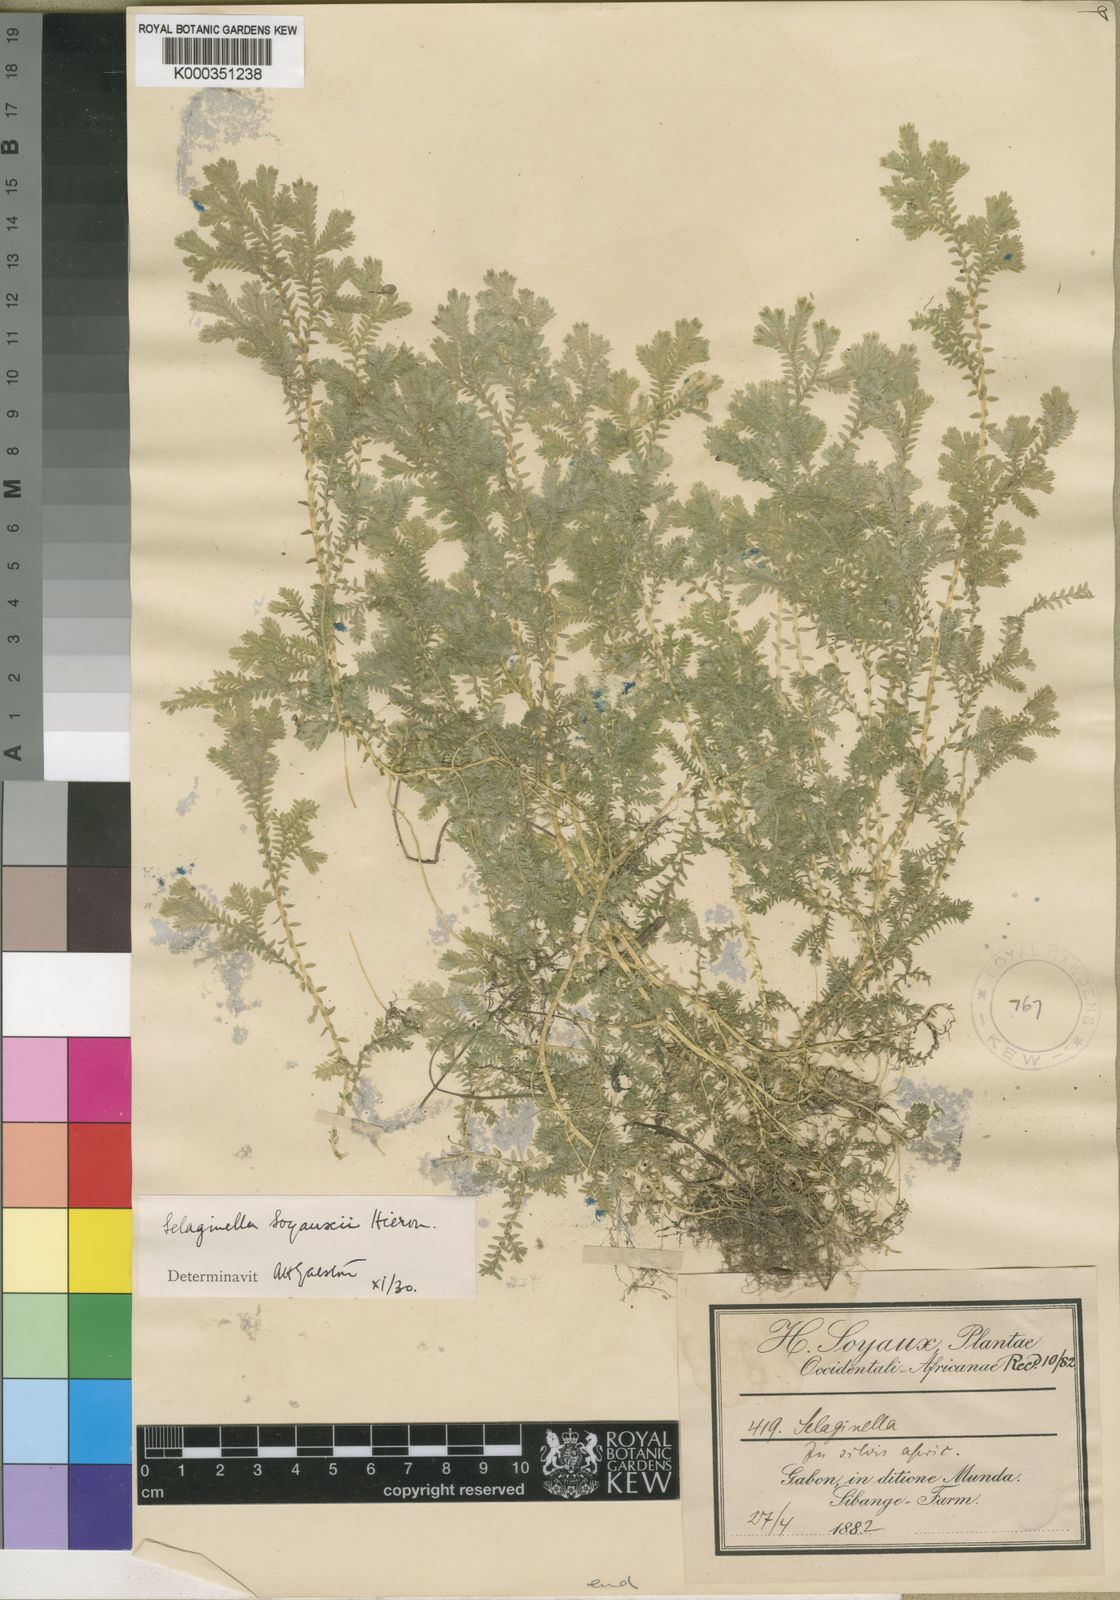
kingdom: Plantae
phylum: Tracheophyta
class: Lycopodiopsida
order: Selaginellales
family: Selaginellaceae
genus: Selaginella
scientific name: Selaginella soyauxii
